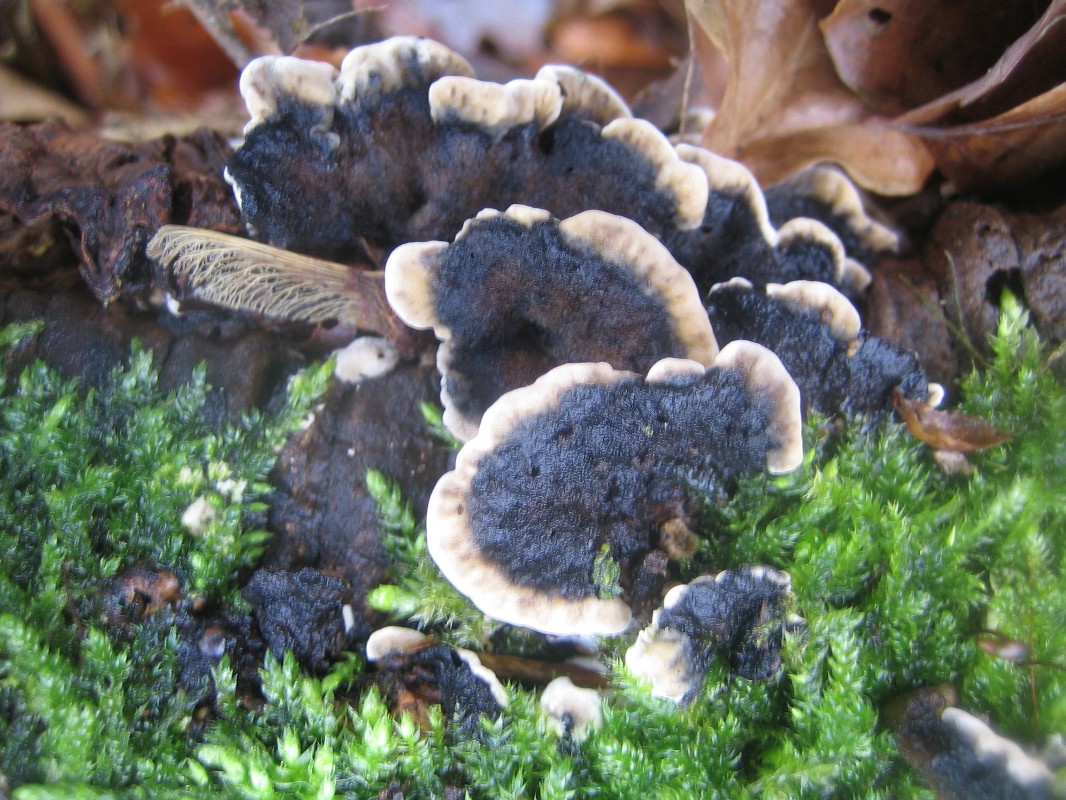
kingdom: Fungi
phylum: Basidiomycota
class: Agaricomycetes
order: Polyporales
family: Phanerochaetaceae
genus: Bjerkandera
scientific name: Bjerkandera adusta
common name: sveden sodporesvamp
